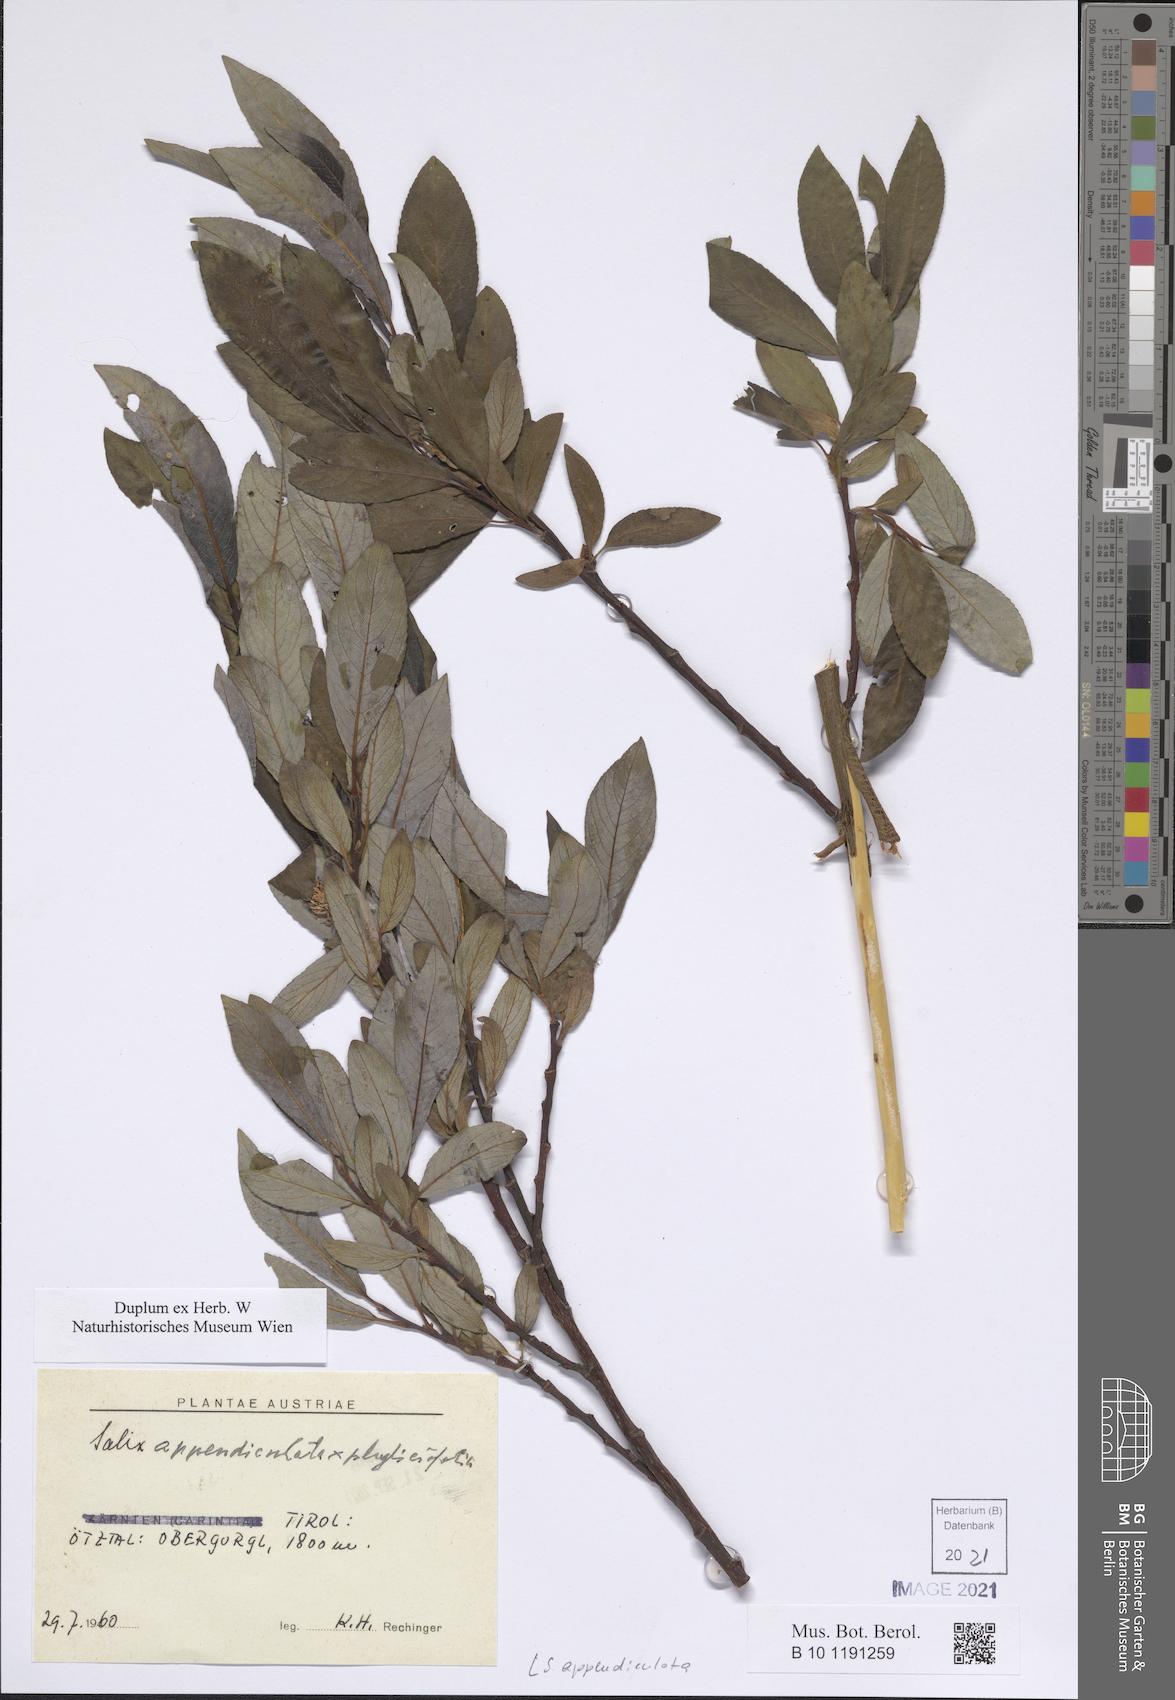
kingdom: Plantae
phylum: Tracheophyta
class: Magnoliopsida
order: Malpighiales
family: Salicaceae
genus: Salix
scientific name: Salix appendiculata
